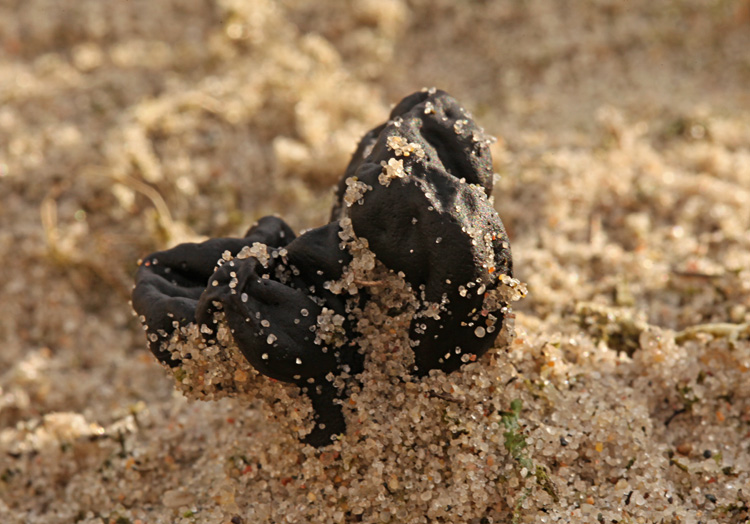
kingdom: Fungi
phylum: Ascomycota
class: Geoglossomycetes
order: Geoglossales
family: Geoglossaceae
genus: Sabuloglossum
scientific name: Sabuloglossum arenarium
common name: klit-jordtunge
